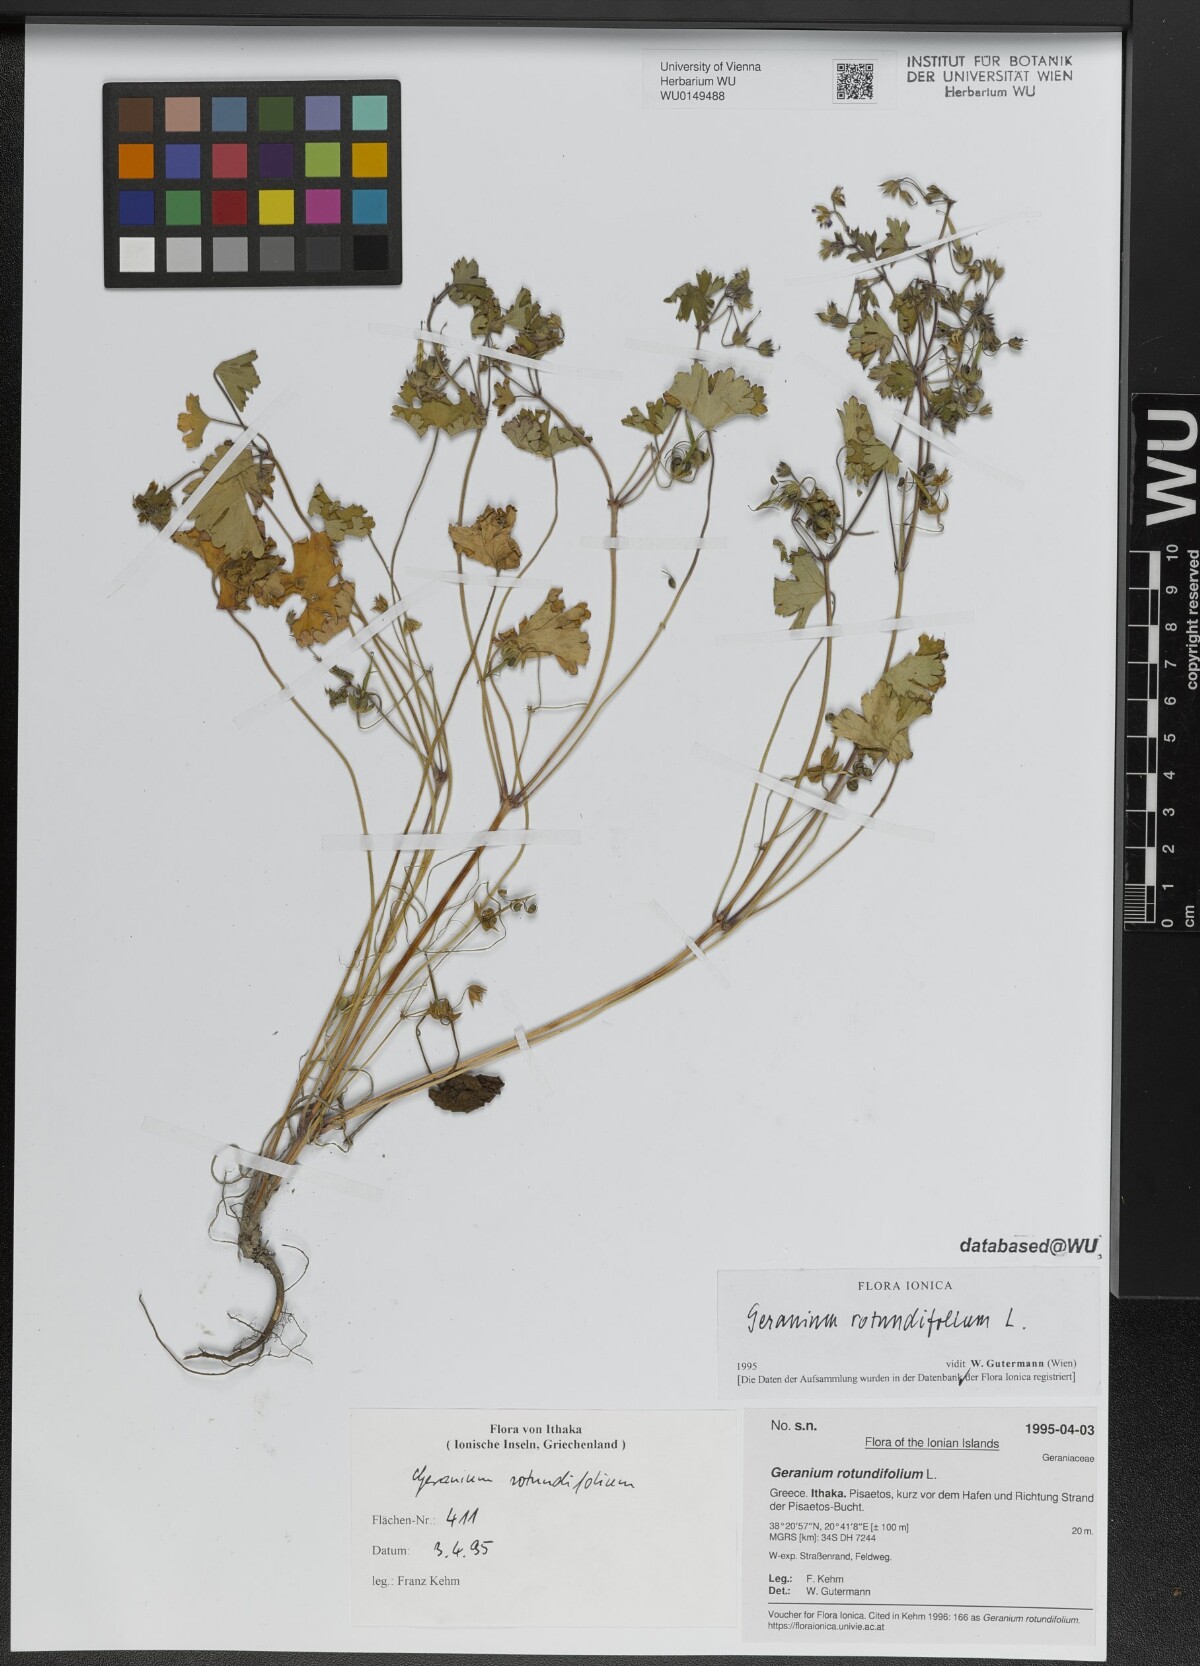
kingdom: Plantae
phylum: Tracheophyta
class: Magnoliopsida
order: Geraniales
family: Geraniaceae
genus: Geranium
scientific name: Geranium rotundifolium
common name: Round-leaved crane's-bill
